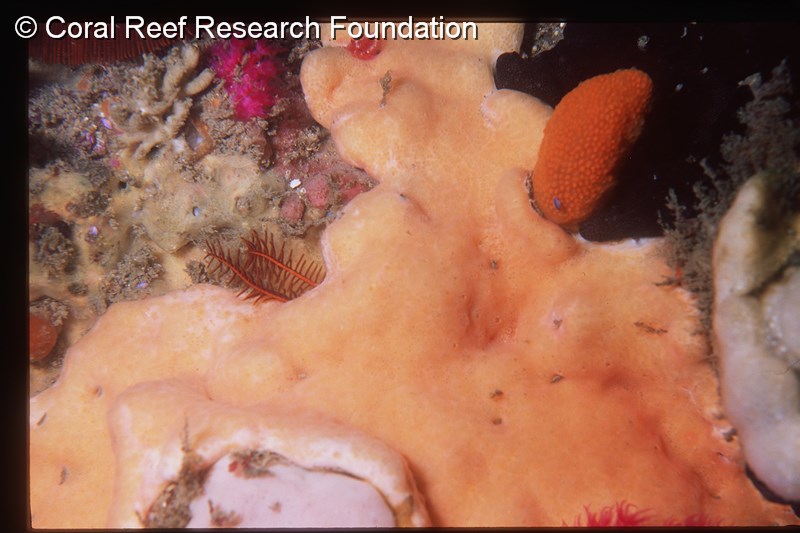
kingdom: Animalia
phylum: Chordata
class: Ascidiacea
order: Aplousobranchia
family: Didemnidae
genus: Leptoclinides
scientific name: Leptoclinides
